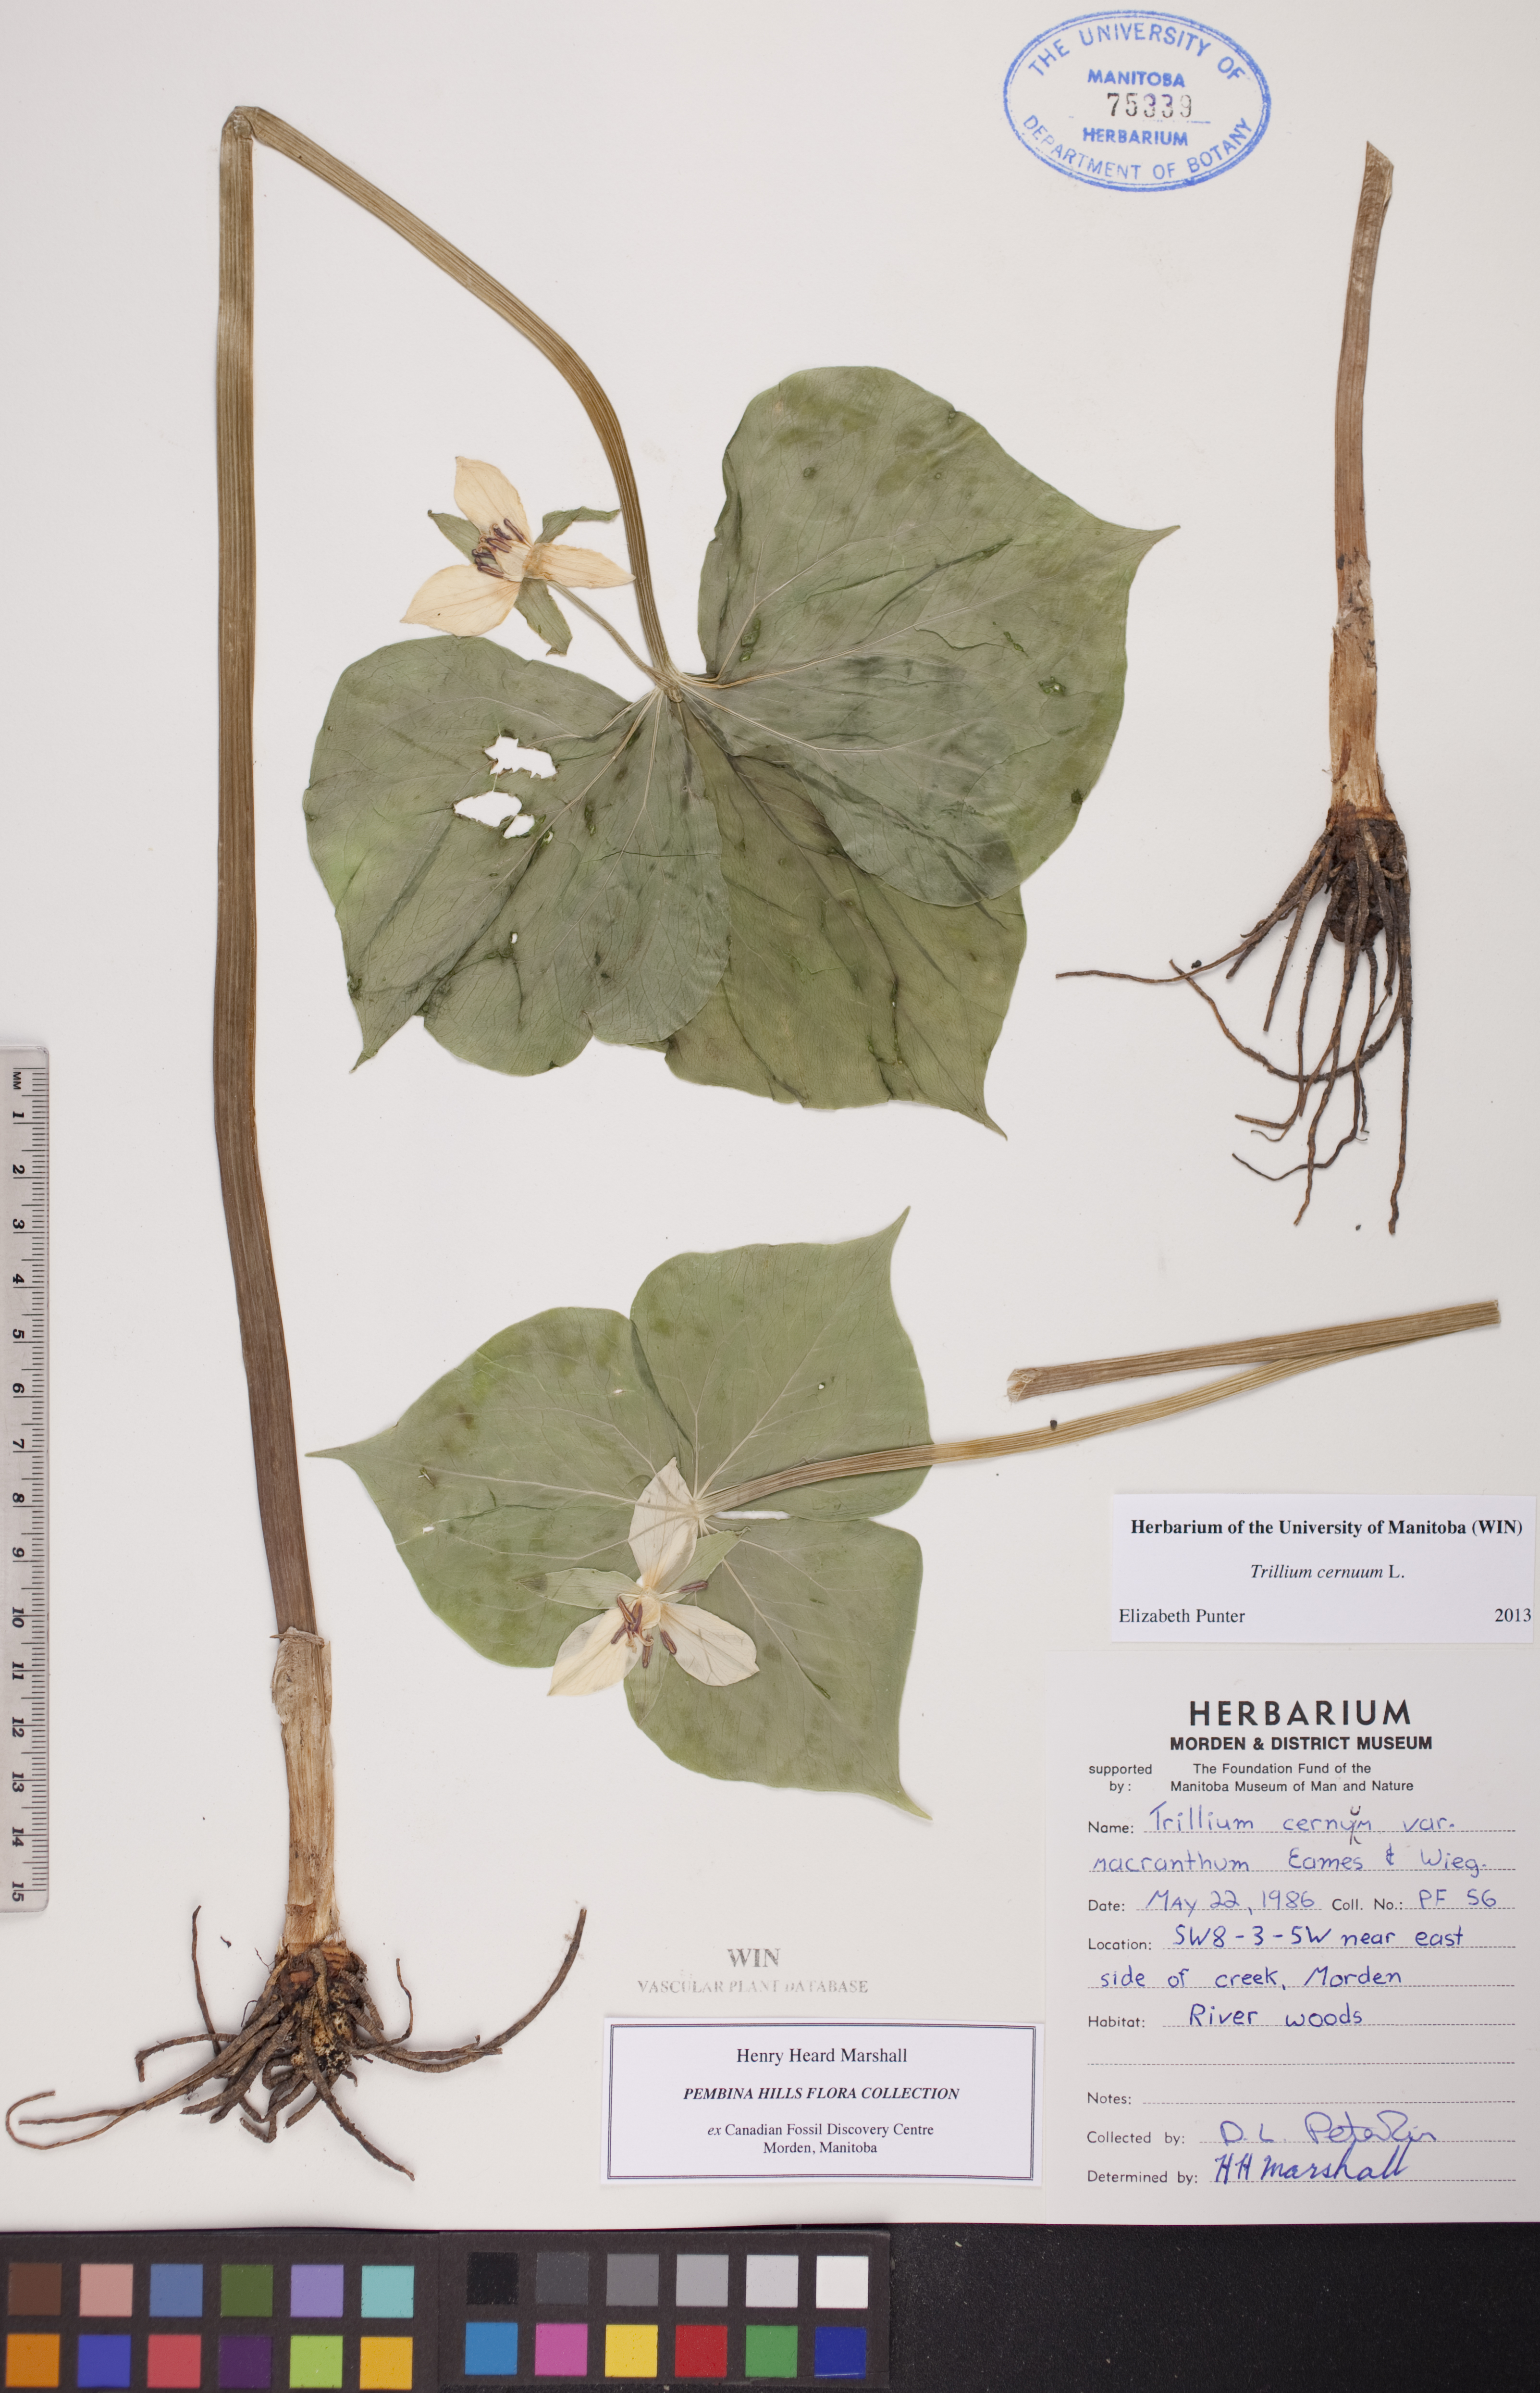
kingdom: Plantae
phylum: Tracheophyta
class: Liliopsida
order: Liliales
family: Melanthiaceae
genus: Trillium
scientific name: Trillium cernuum
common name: Nodding trillium
